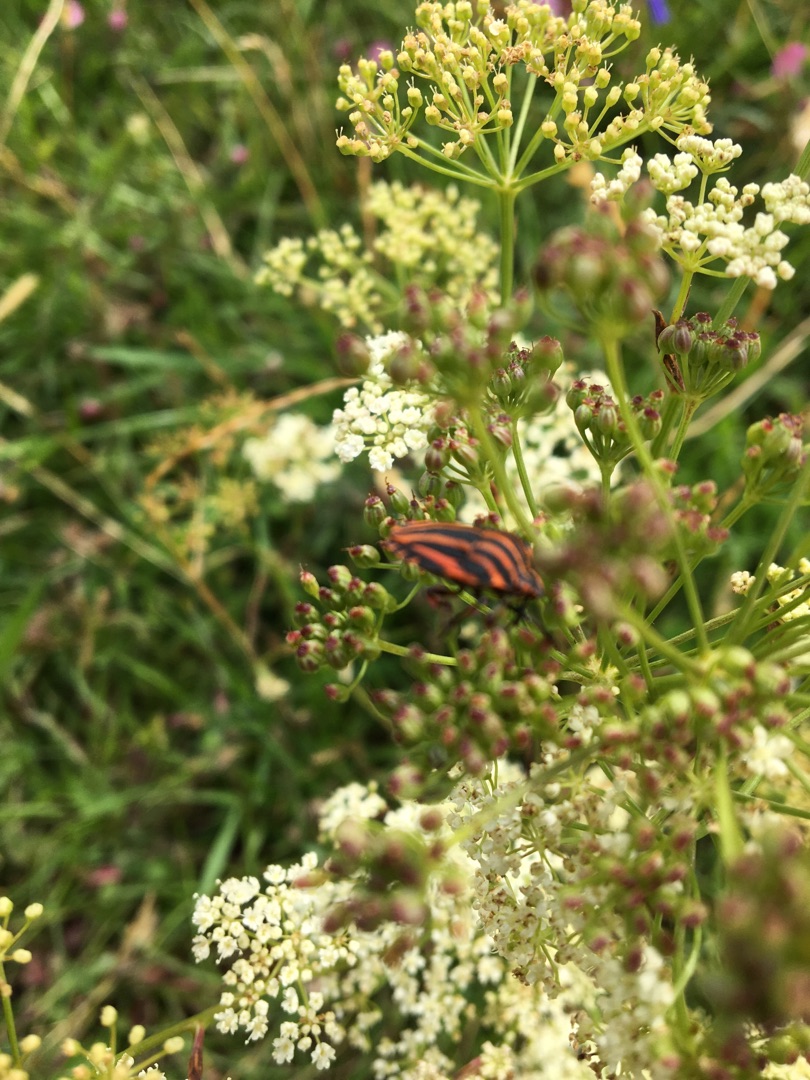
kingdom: Animalia
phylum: Arthropoda
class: Insecta
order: Hemiptera
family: Pentatomidae
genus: Graphosoma
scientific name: Graphosoma italicum
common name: Stribetæge
